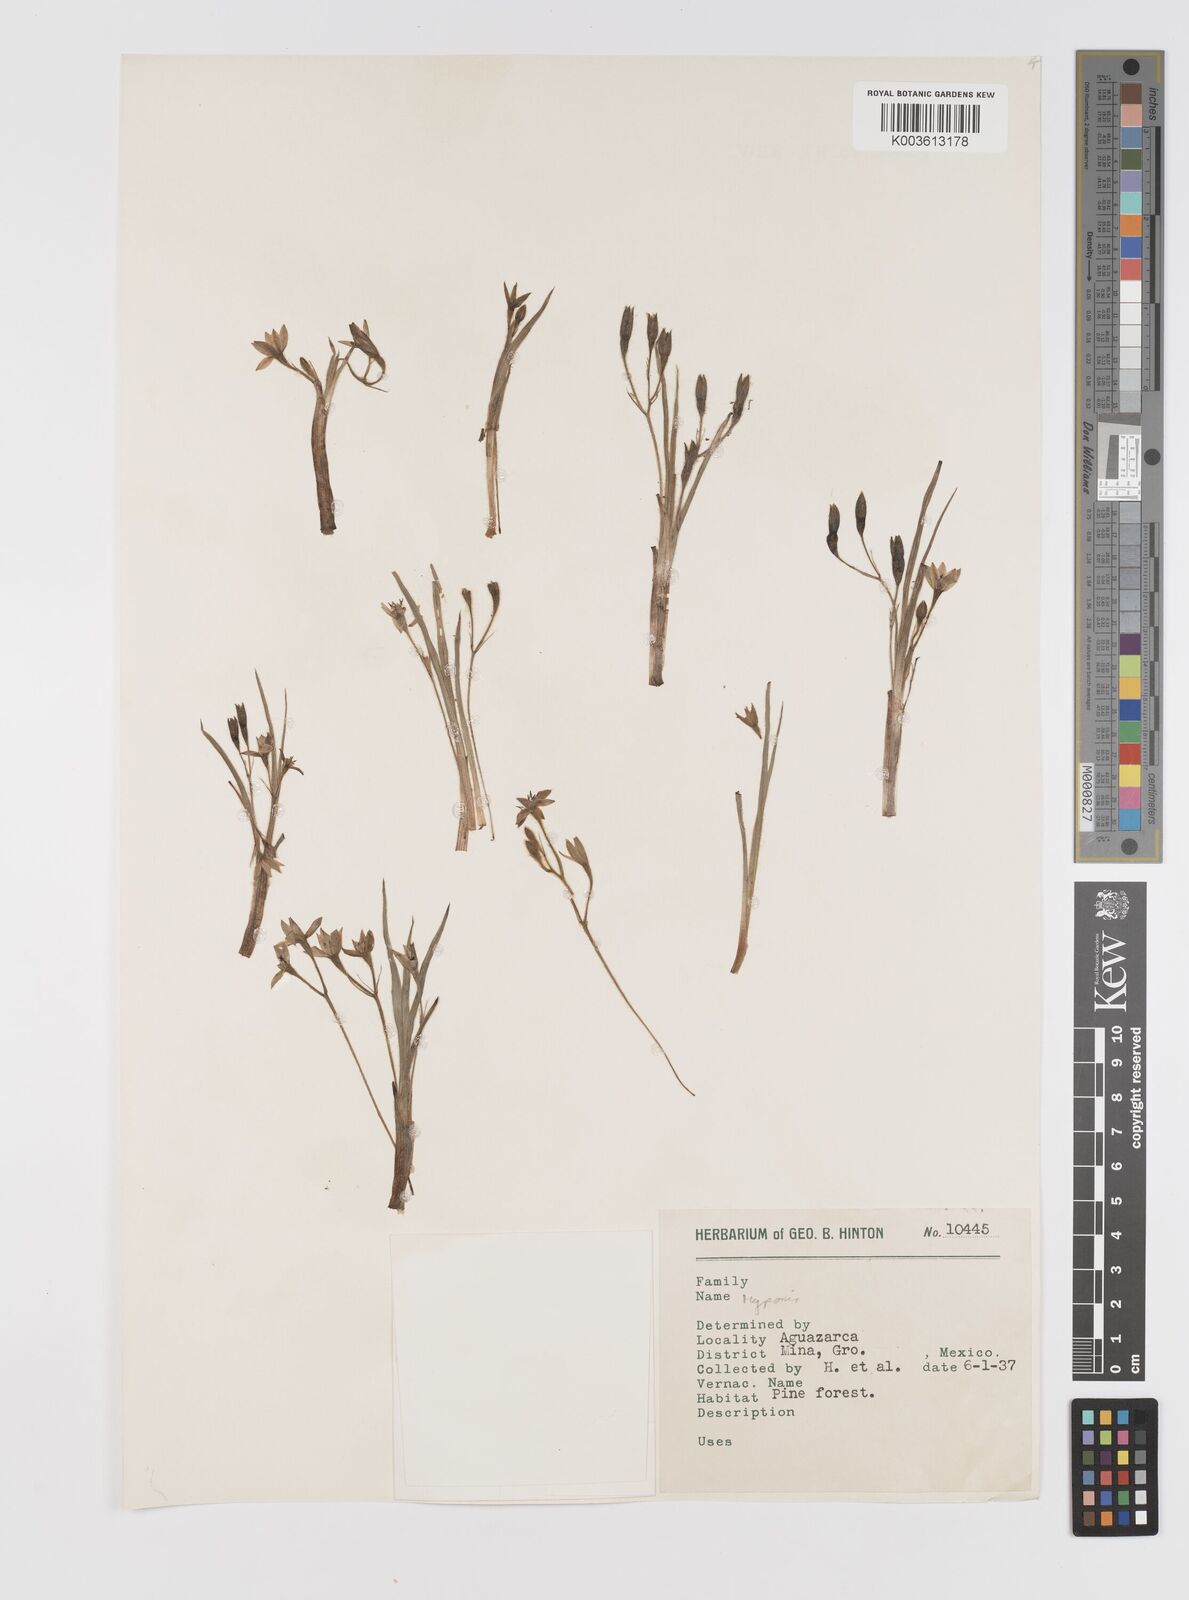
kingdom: Plantae
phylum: Tracheophyta
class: Liliopsida
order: Asparagales
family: Hypoxidaceae
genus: Hypoxis
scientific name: Hypoxis
